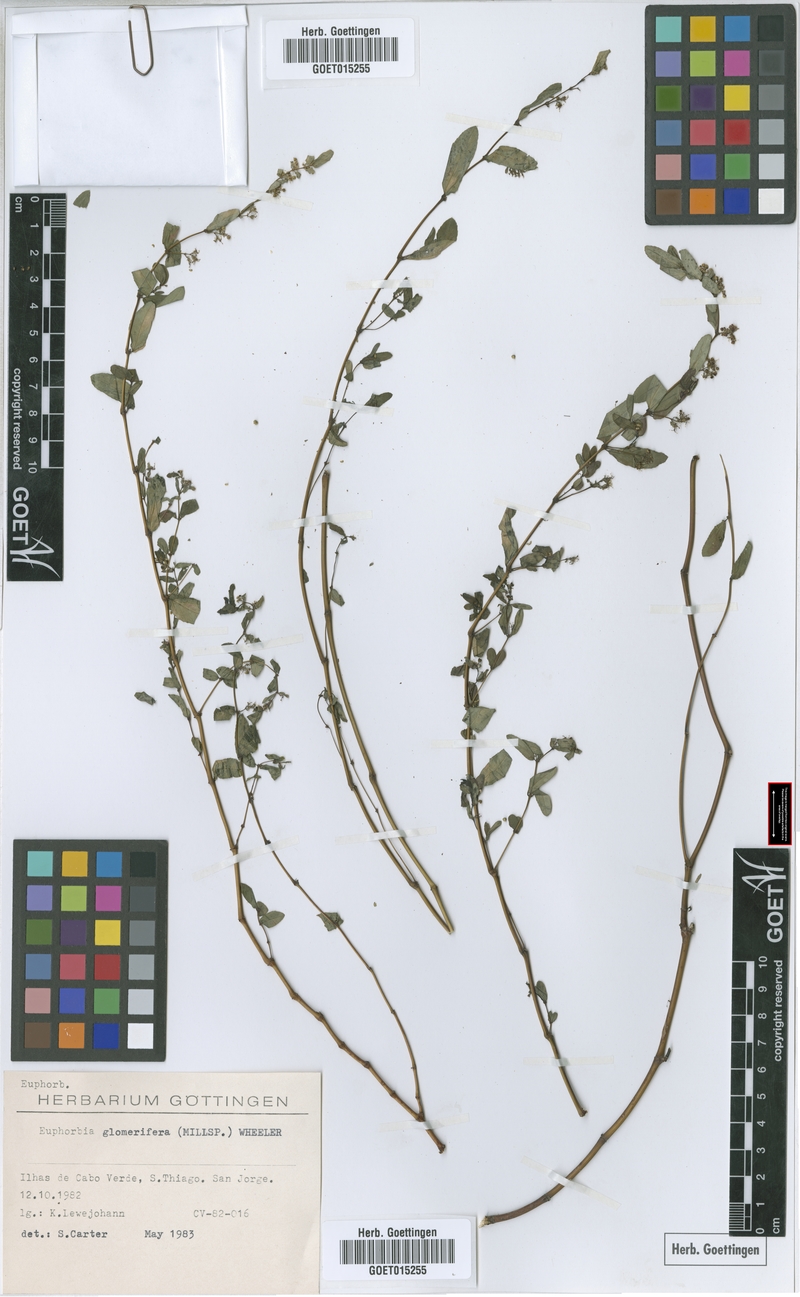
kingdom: Plantae
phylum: Tracheophyta
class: Magnoliopsida
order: Malpighiales
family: Euphorbiaceae
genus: Euphorbia
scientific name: Euphorbia hypericifolia
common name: Graceful sandmat
